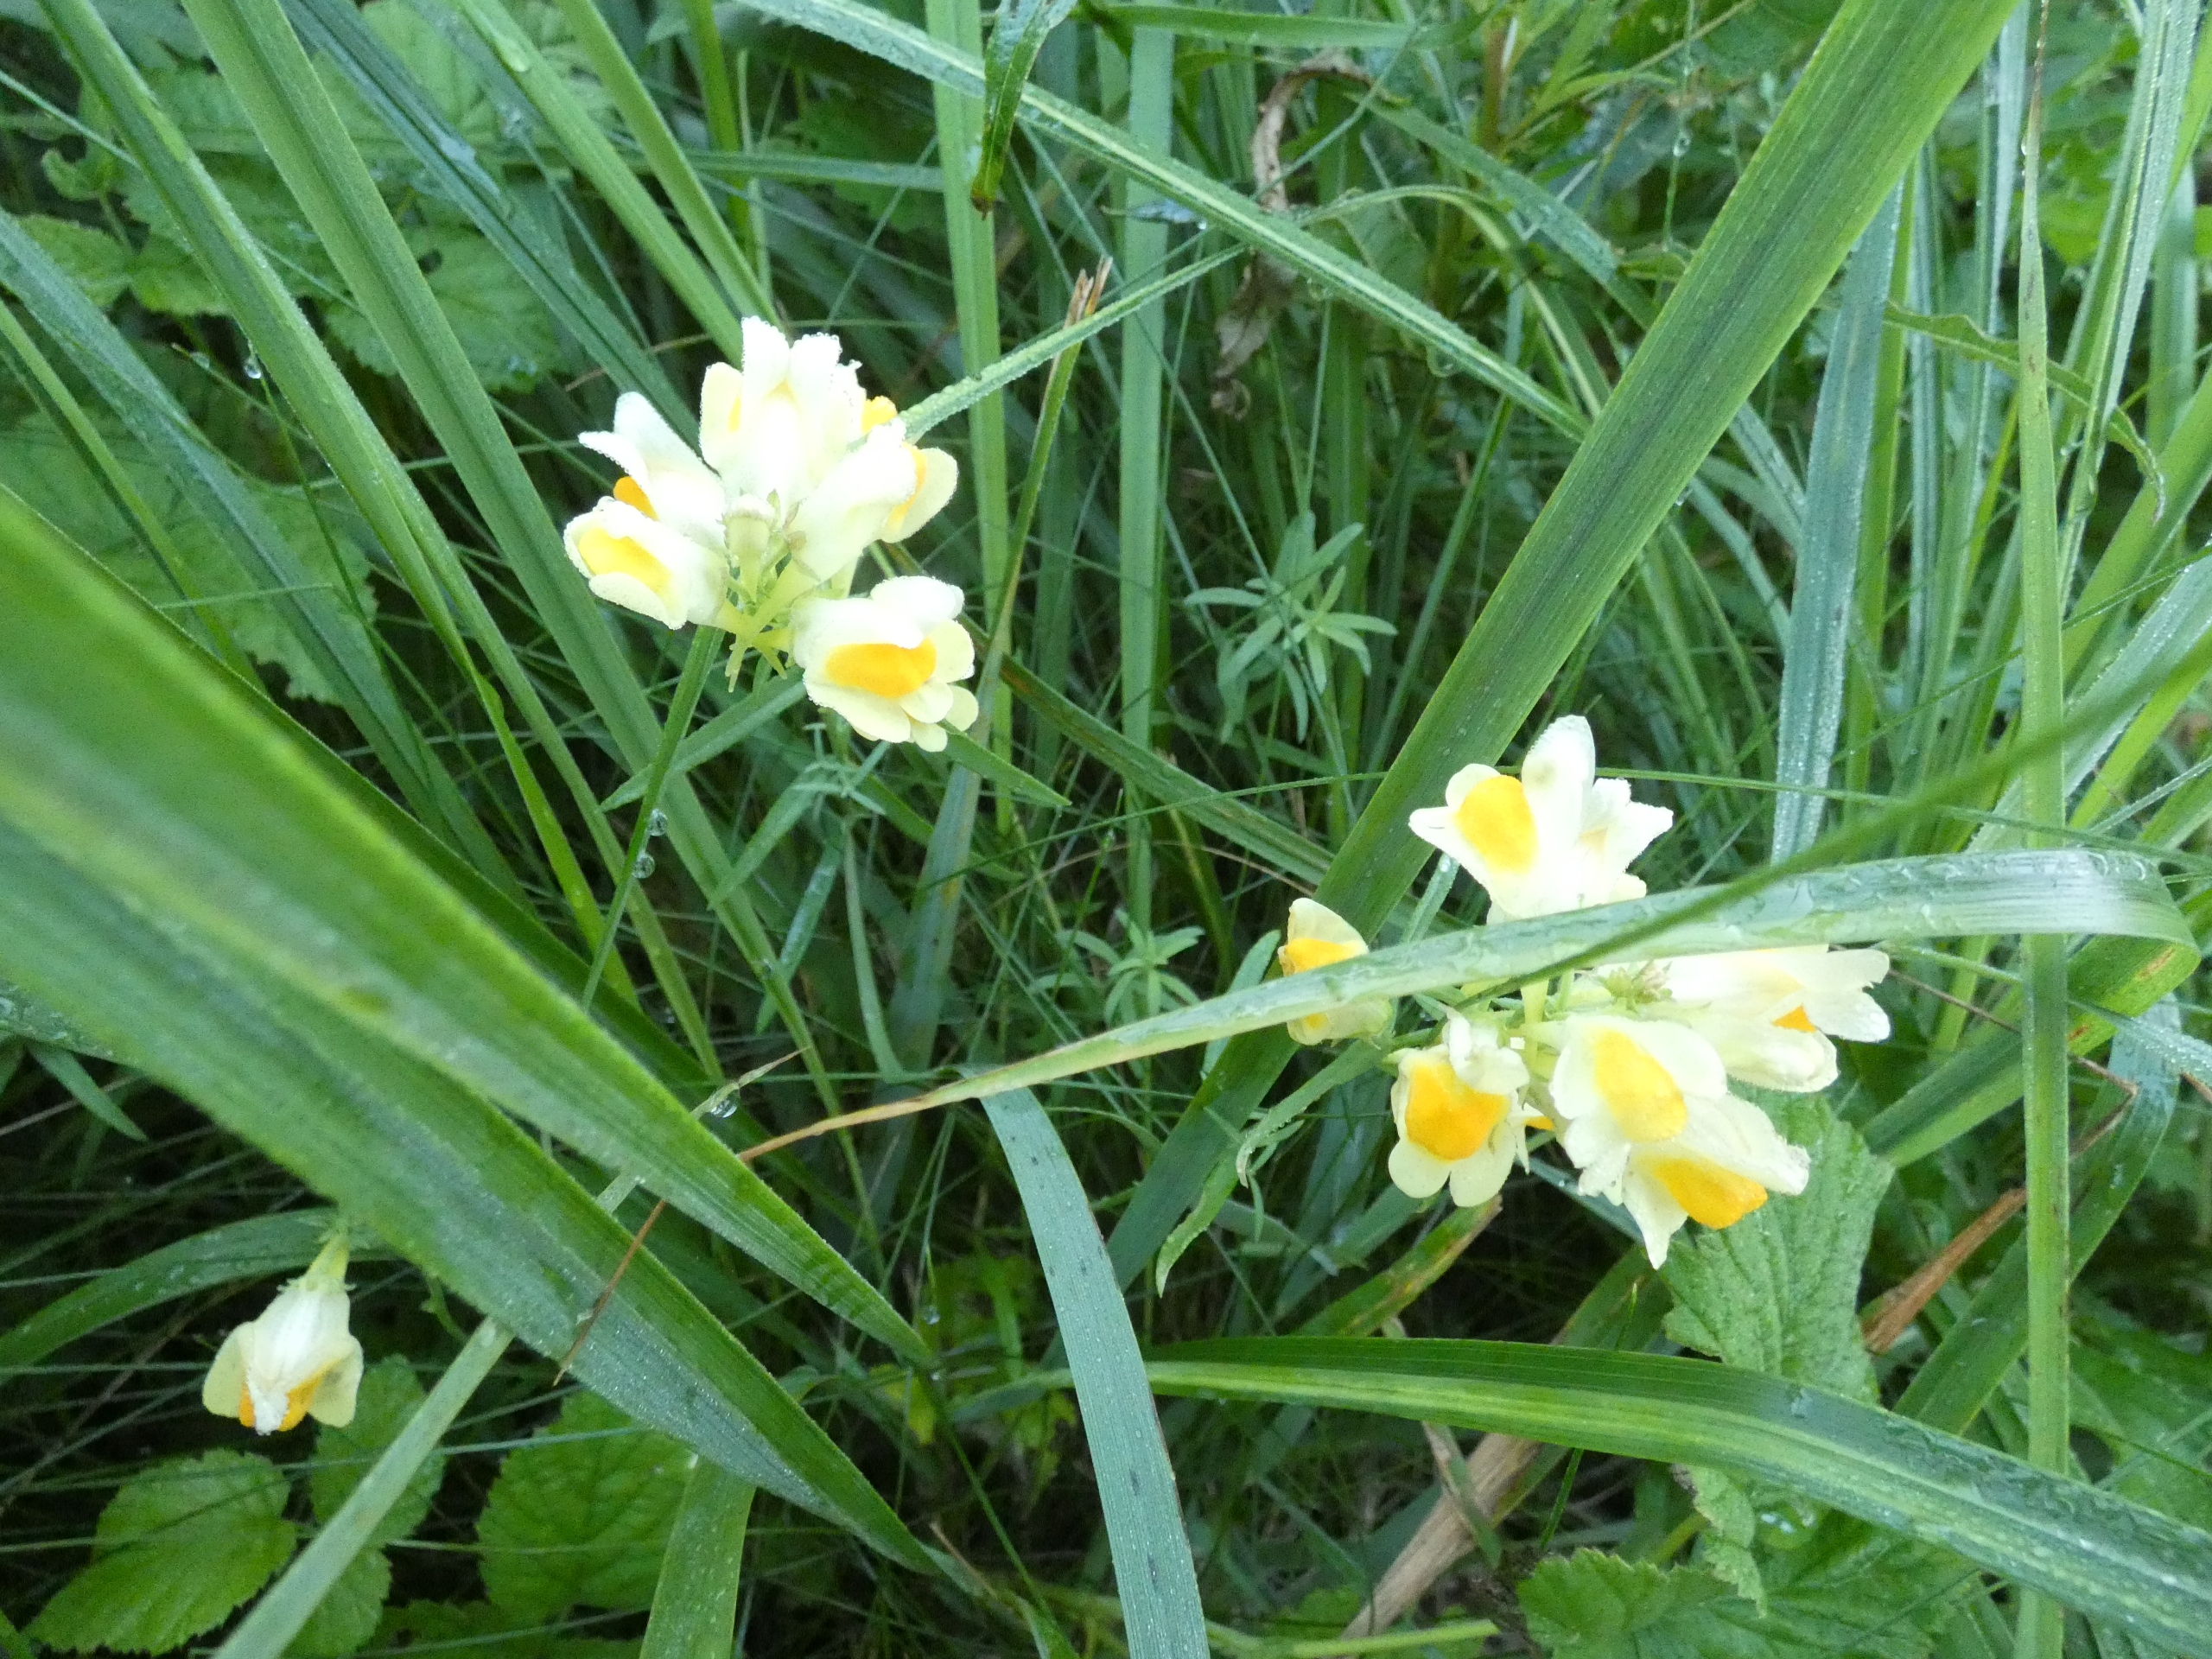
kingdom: Plantae
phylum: Tracheophyta
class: Magnoliopsida
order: Lamiales
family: Plantaginaceae
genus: Linaria
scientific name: Linaria vulgaris
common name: Almindelig torskemund
